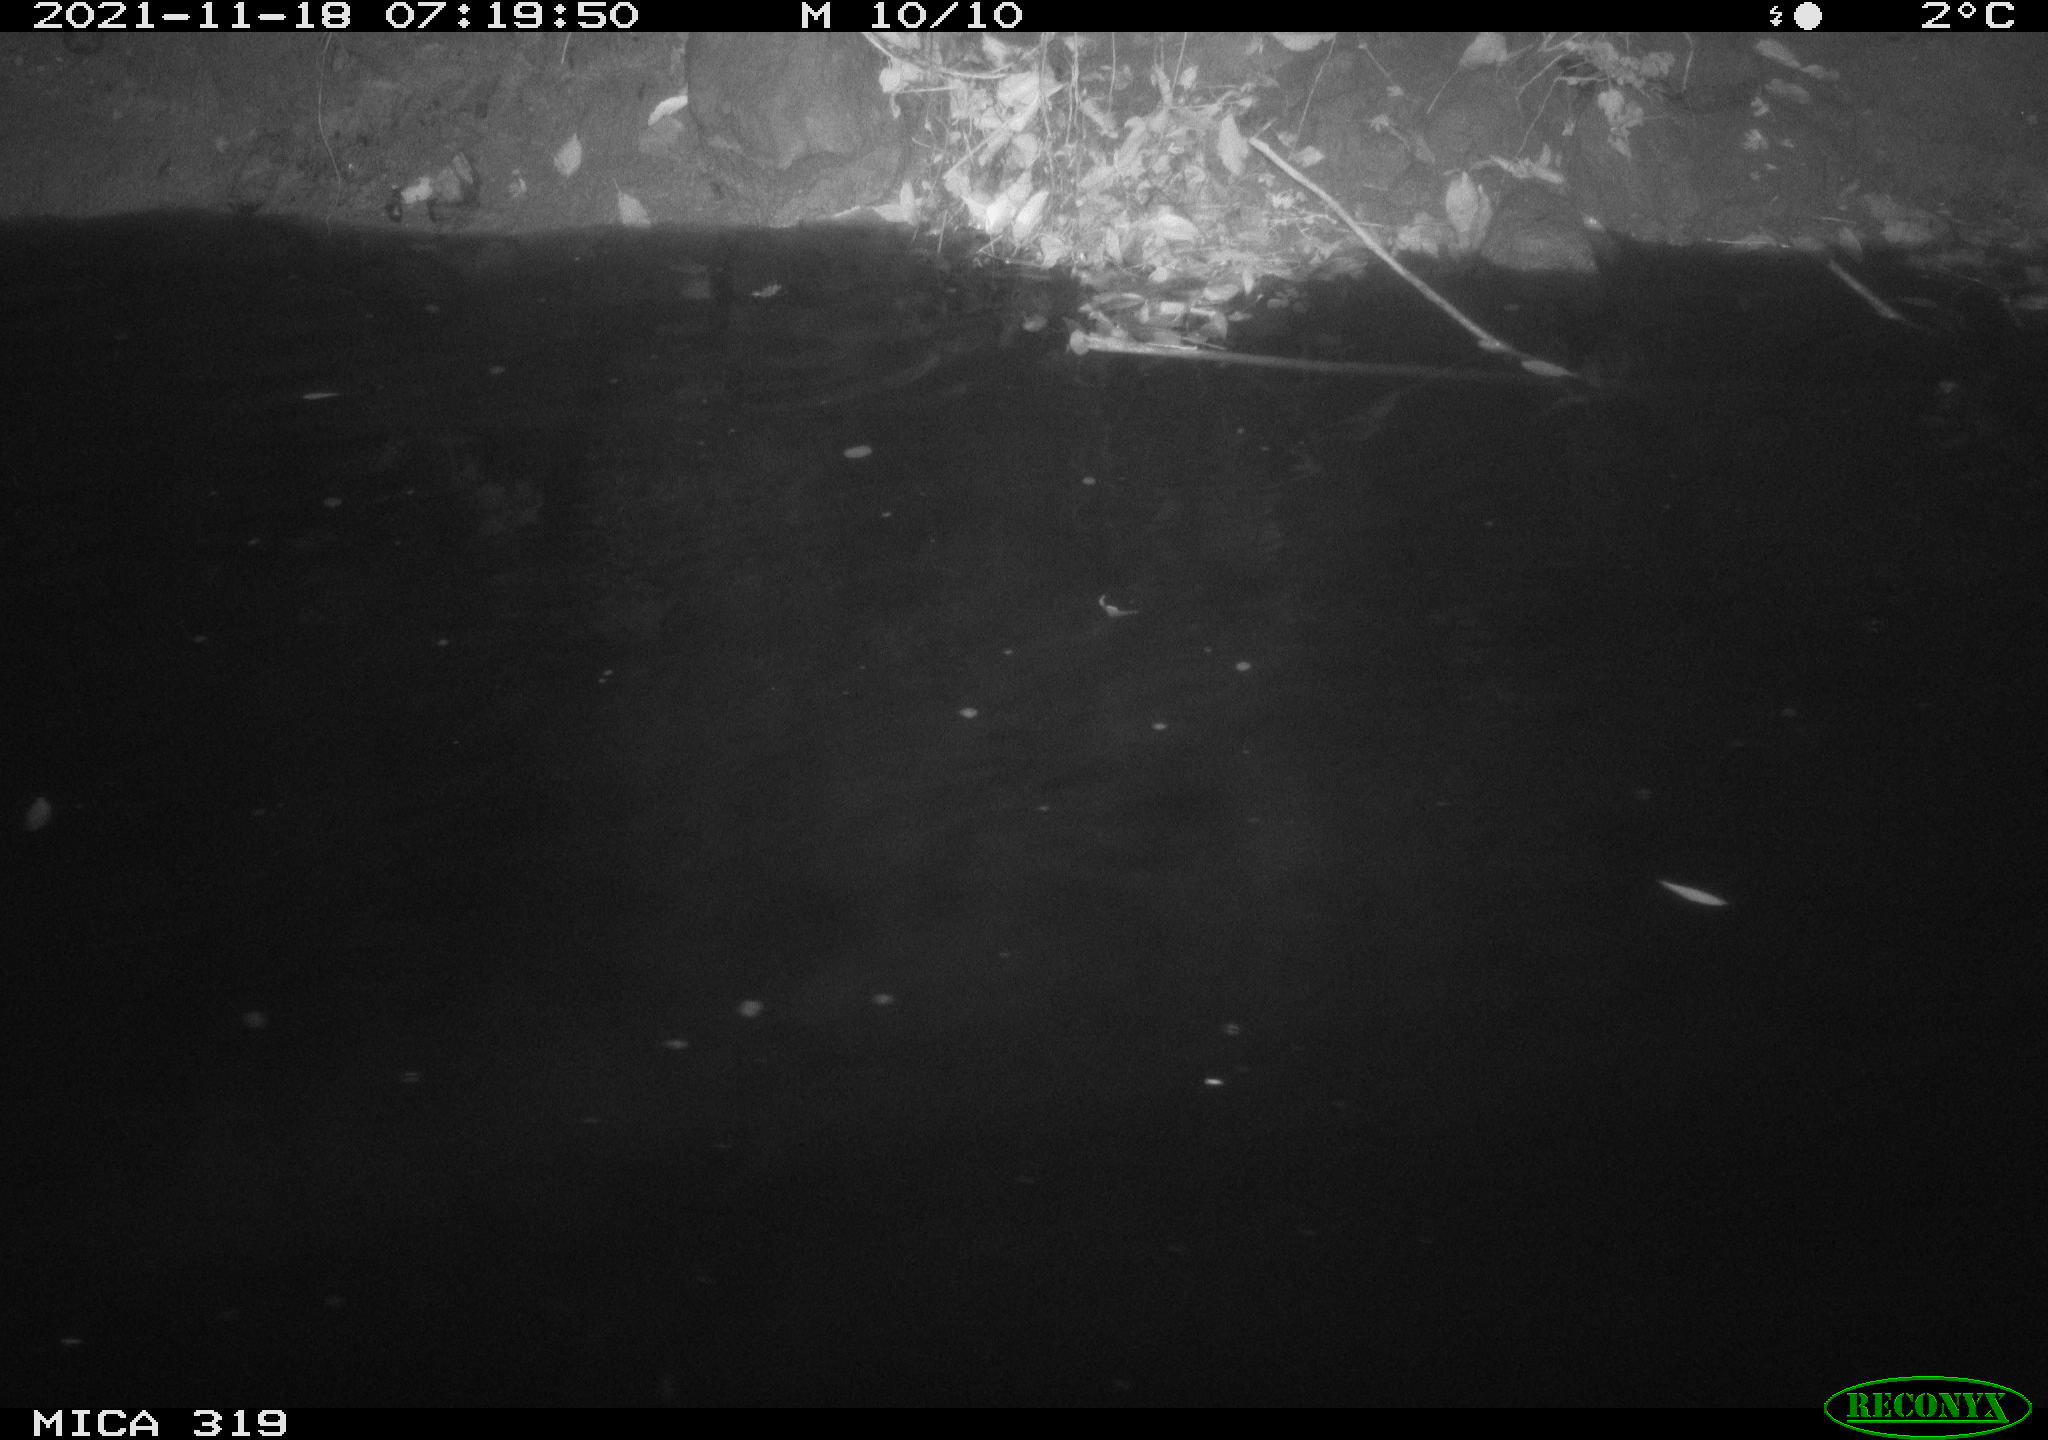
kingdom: Animalia
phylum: Chordata
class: Aves
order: Anseriformes
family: Anatidae
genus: Anas
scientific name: Anas platyrhynchos
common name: Mallard
